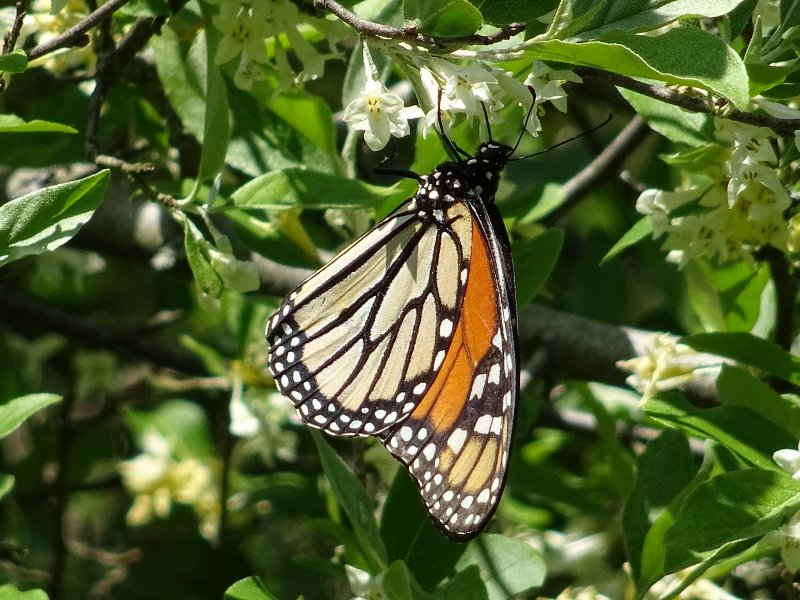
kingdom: Animalia
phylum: Arthropoda
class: Insecta
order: Lepidoptera
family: Nymphalidae
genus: Danaus
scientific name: Danaus plexippus
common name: Monarch
